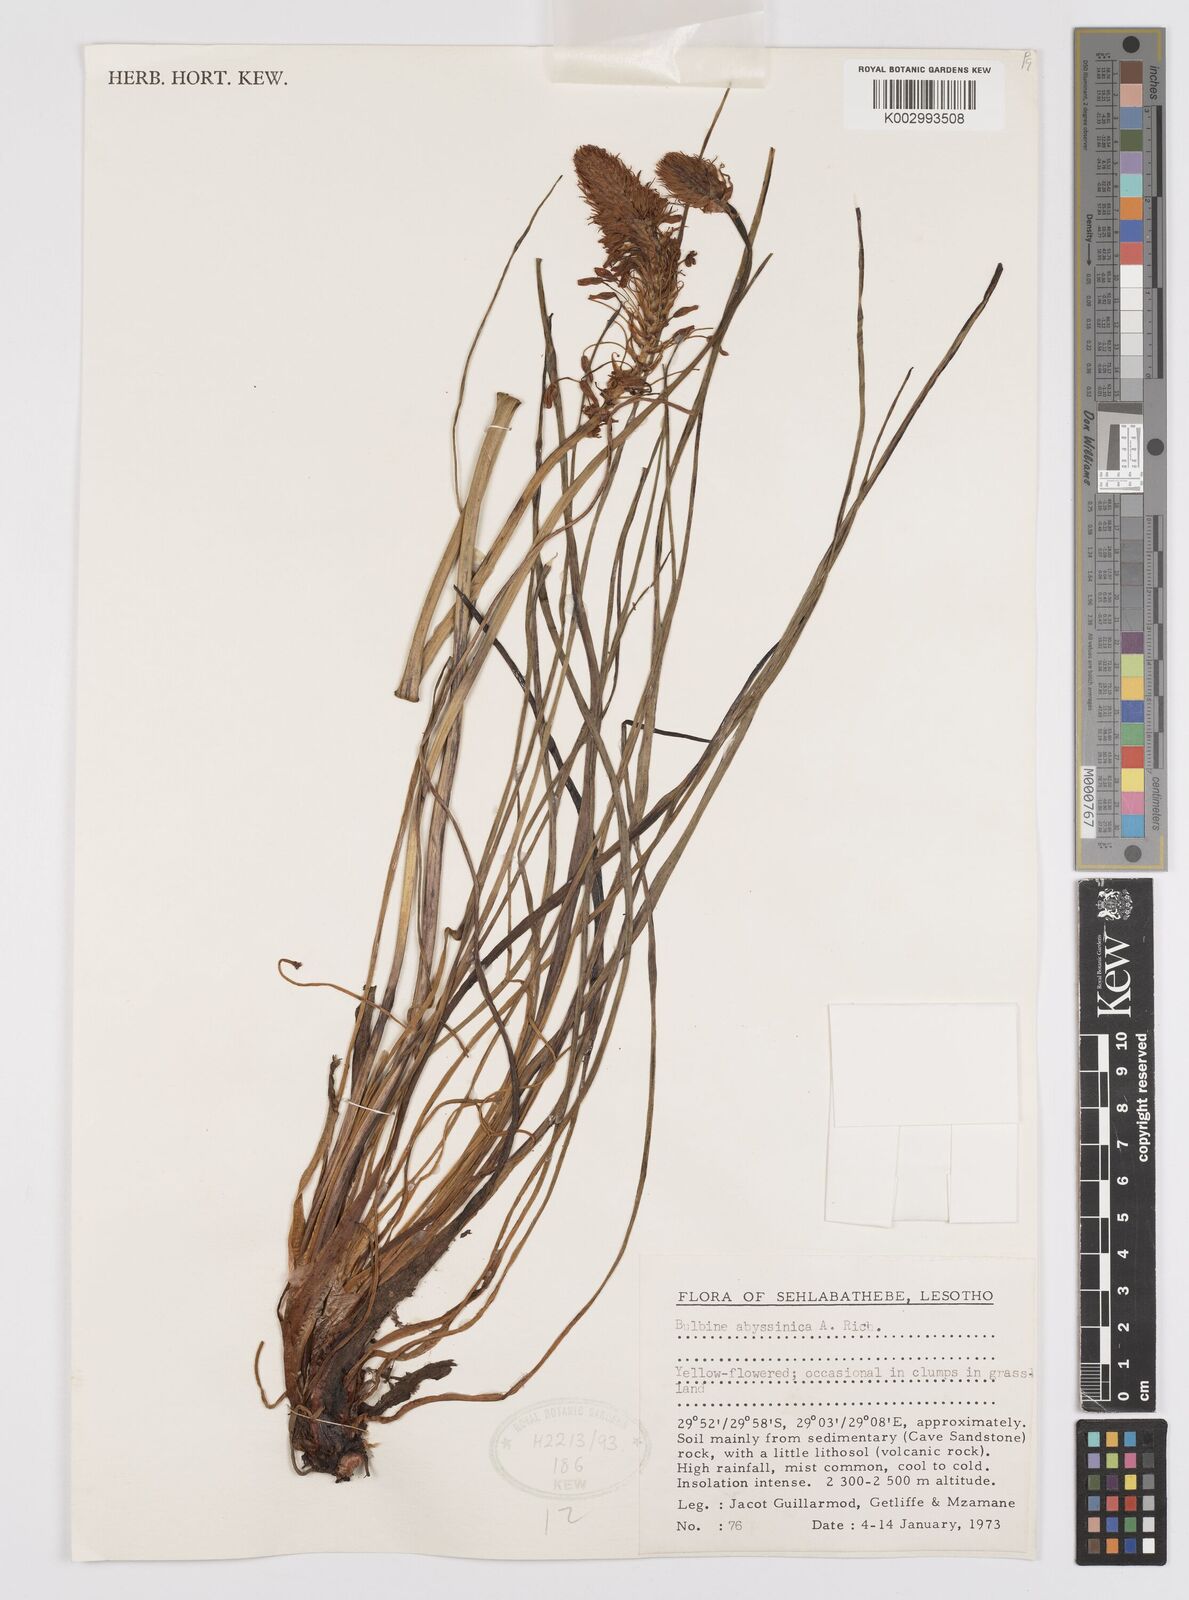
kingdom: Plantae
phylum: Tracheophyta
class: Liliopsida
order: Asparagales
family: Asphodelaceae
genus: Bulbine
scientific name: Bulbine abyssinica
